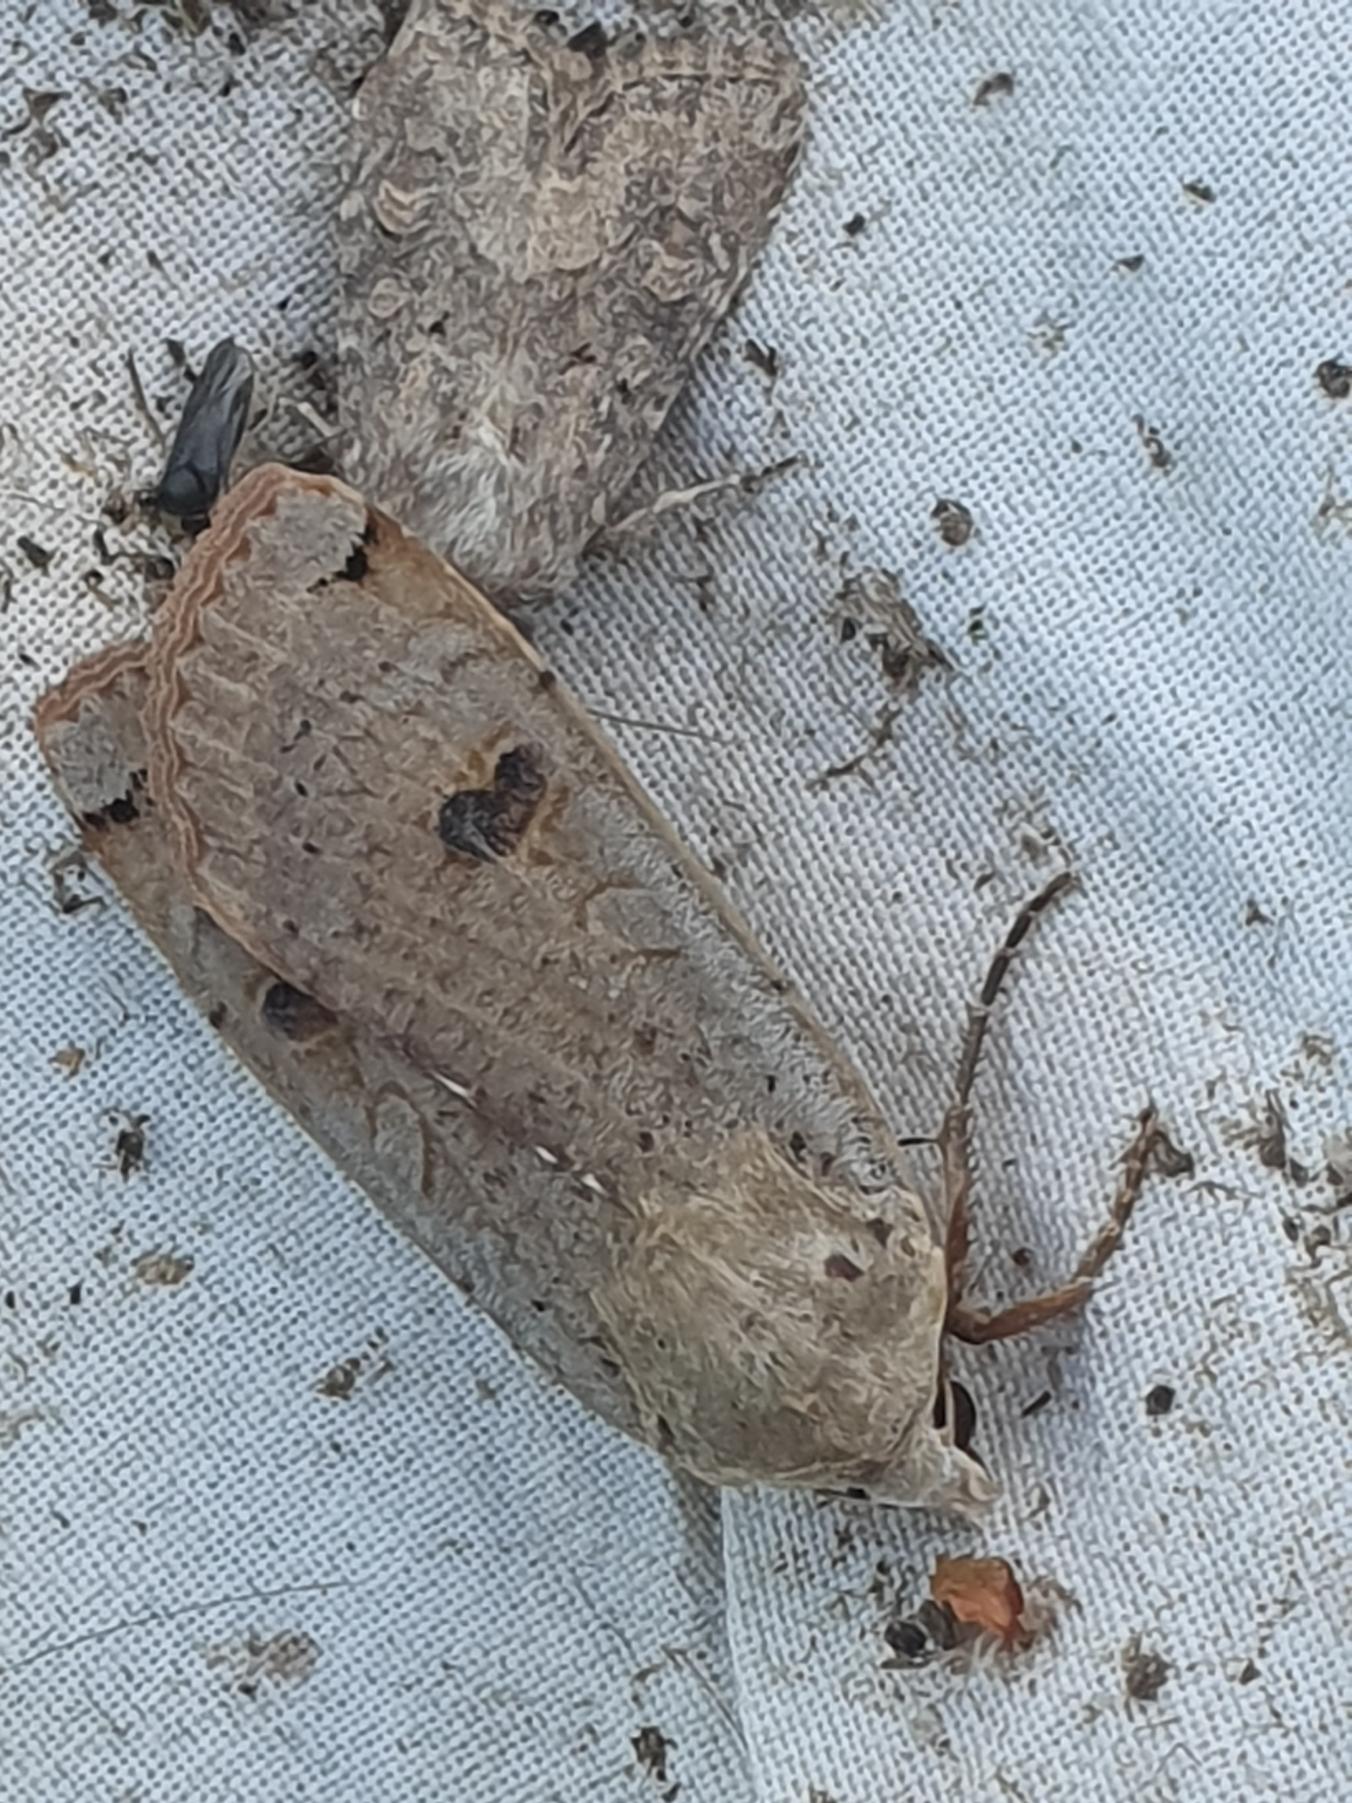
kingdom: Animalia
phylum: Arthropoda
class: Insecta
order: Lepidoptera
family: Noctuidae
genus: Noctua
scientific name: Noctua pronuba
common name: Stor smutugle
